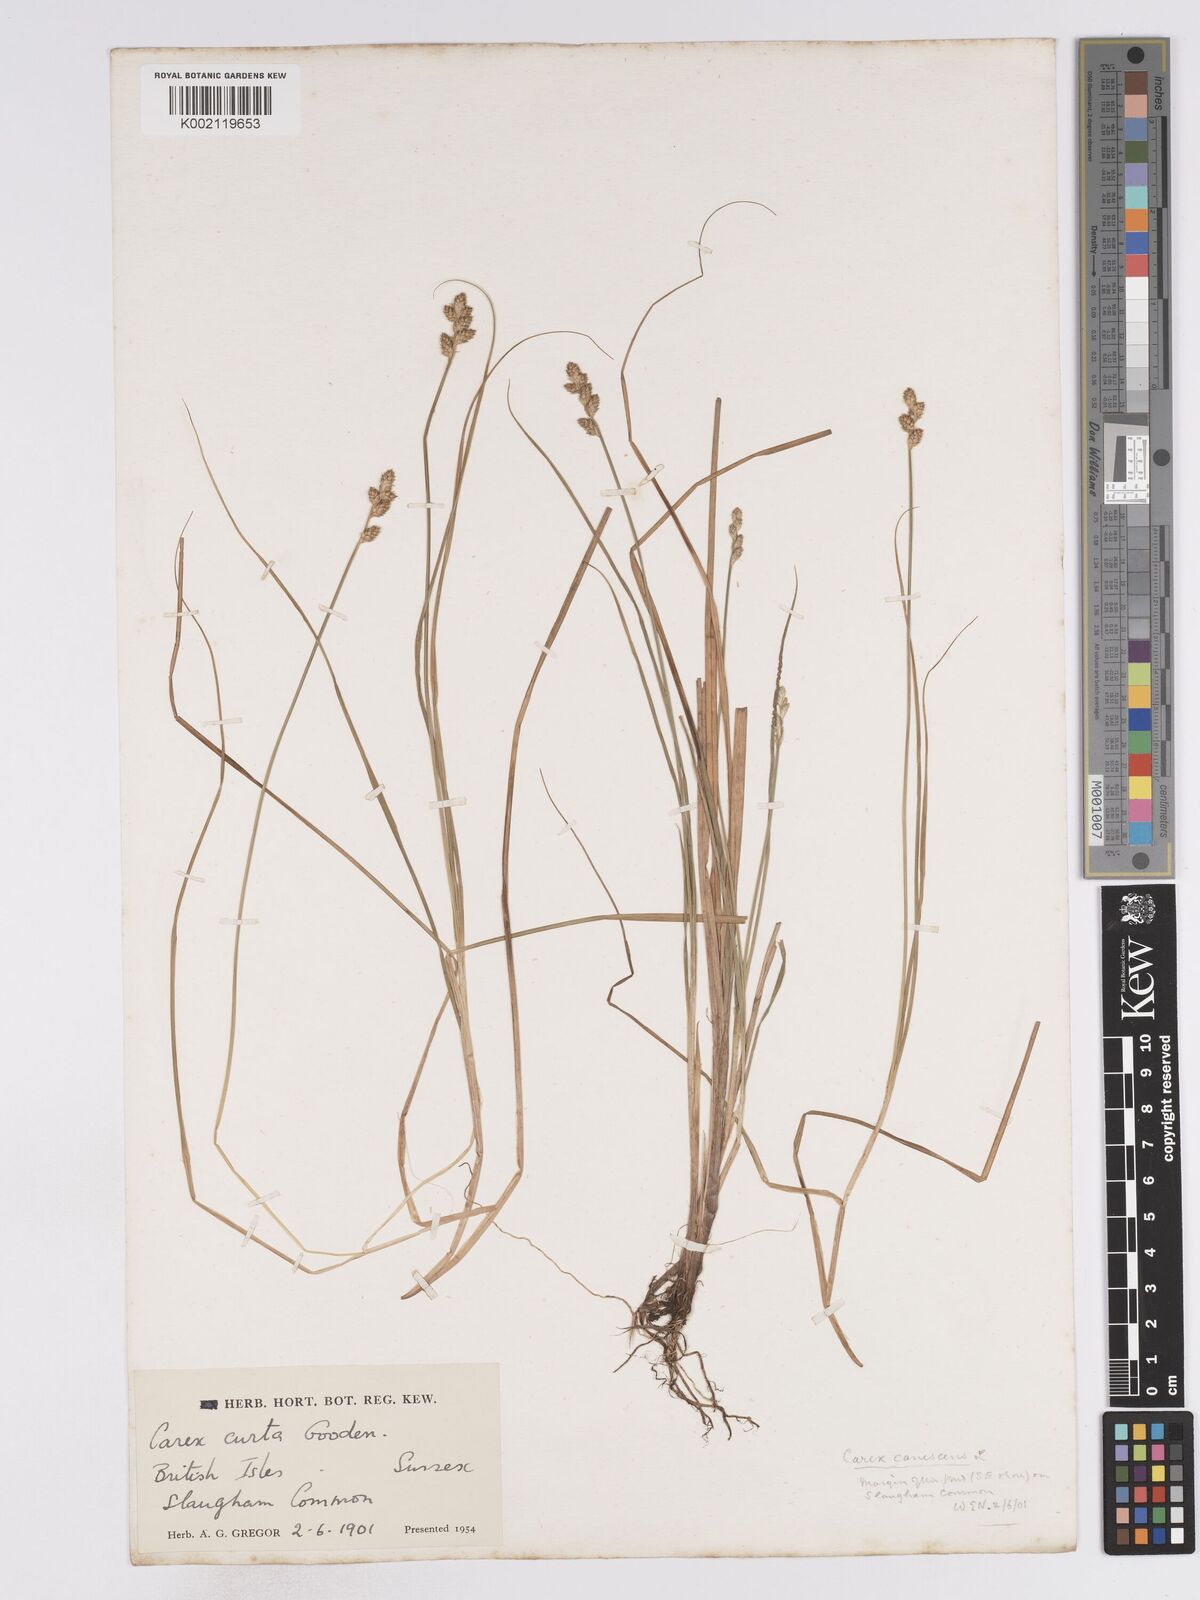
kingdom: Plantae
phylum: Tracheophyta
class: Liliopsida
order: Poales
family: Cyperaceae
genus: Carex
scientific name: Carex curta
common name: White sedge
